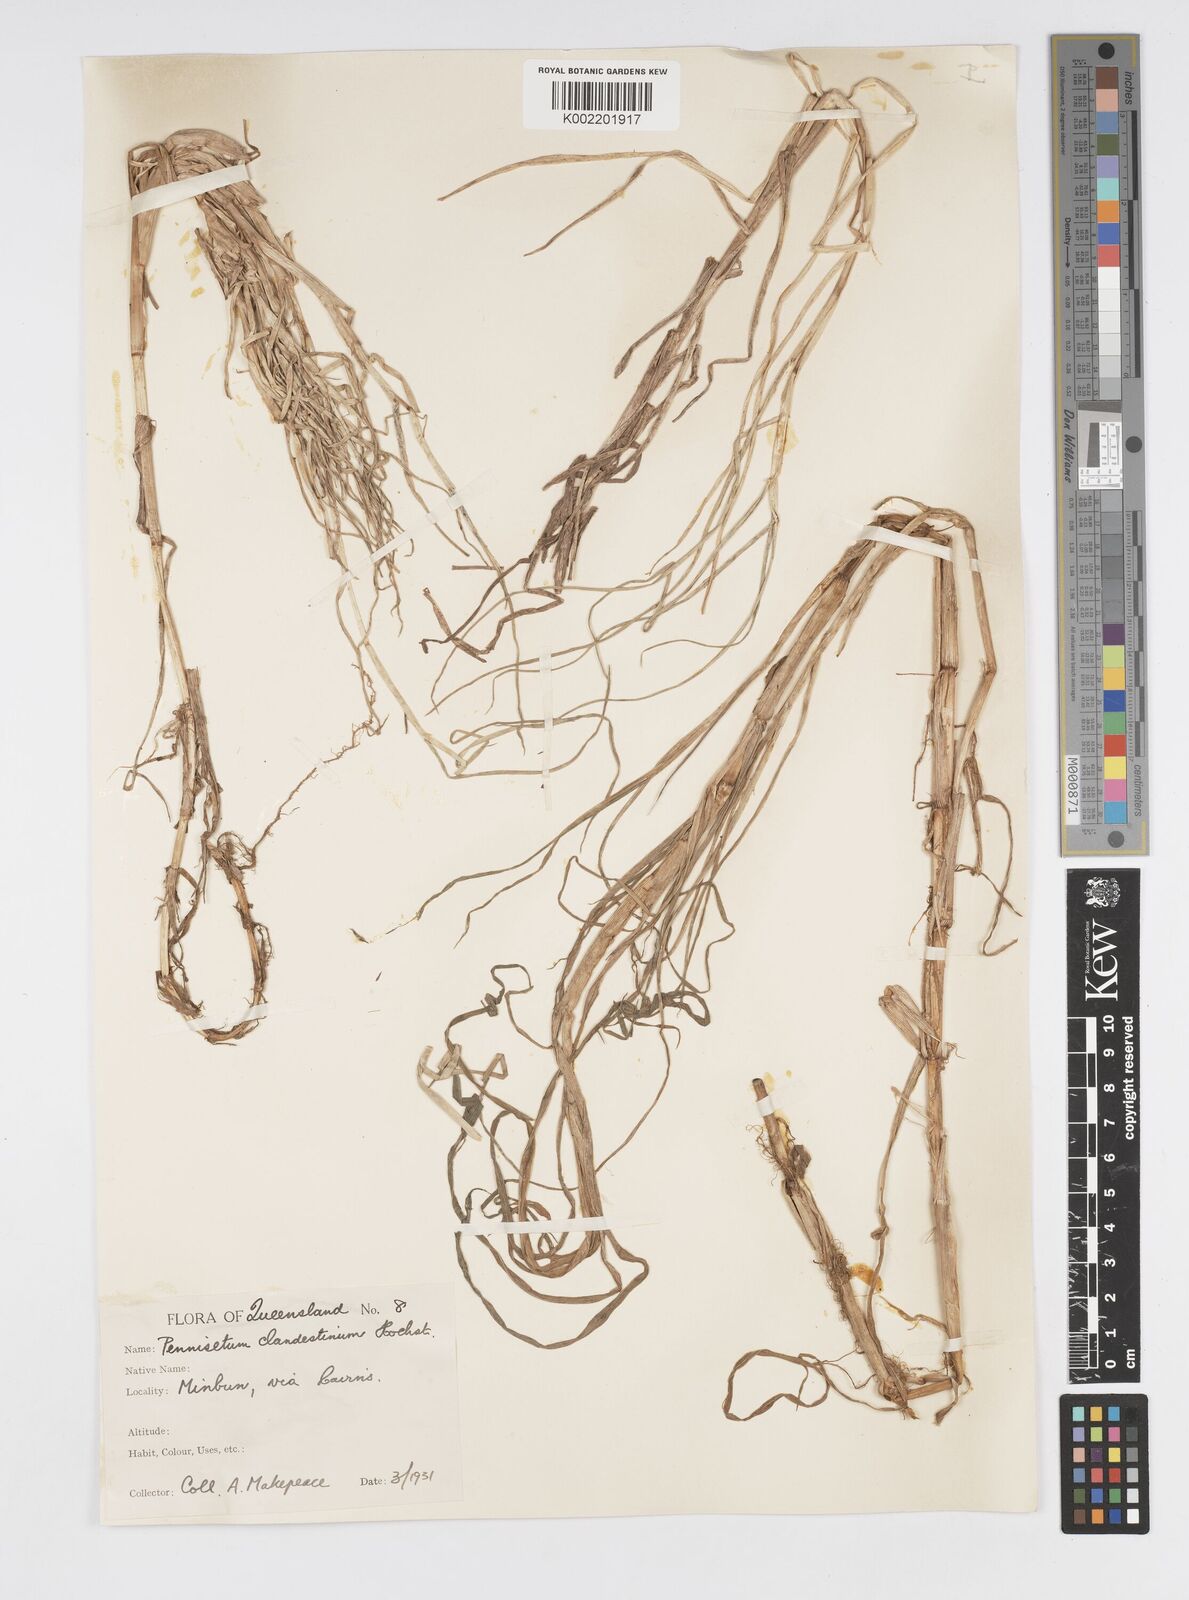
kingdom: Plantae
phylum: Tracheophyta
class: Liliopsida
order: Poales
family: Poaceae
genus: Cenchrus
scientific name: Cenchrus clandestinus
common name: Kikuyugrass
